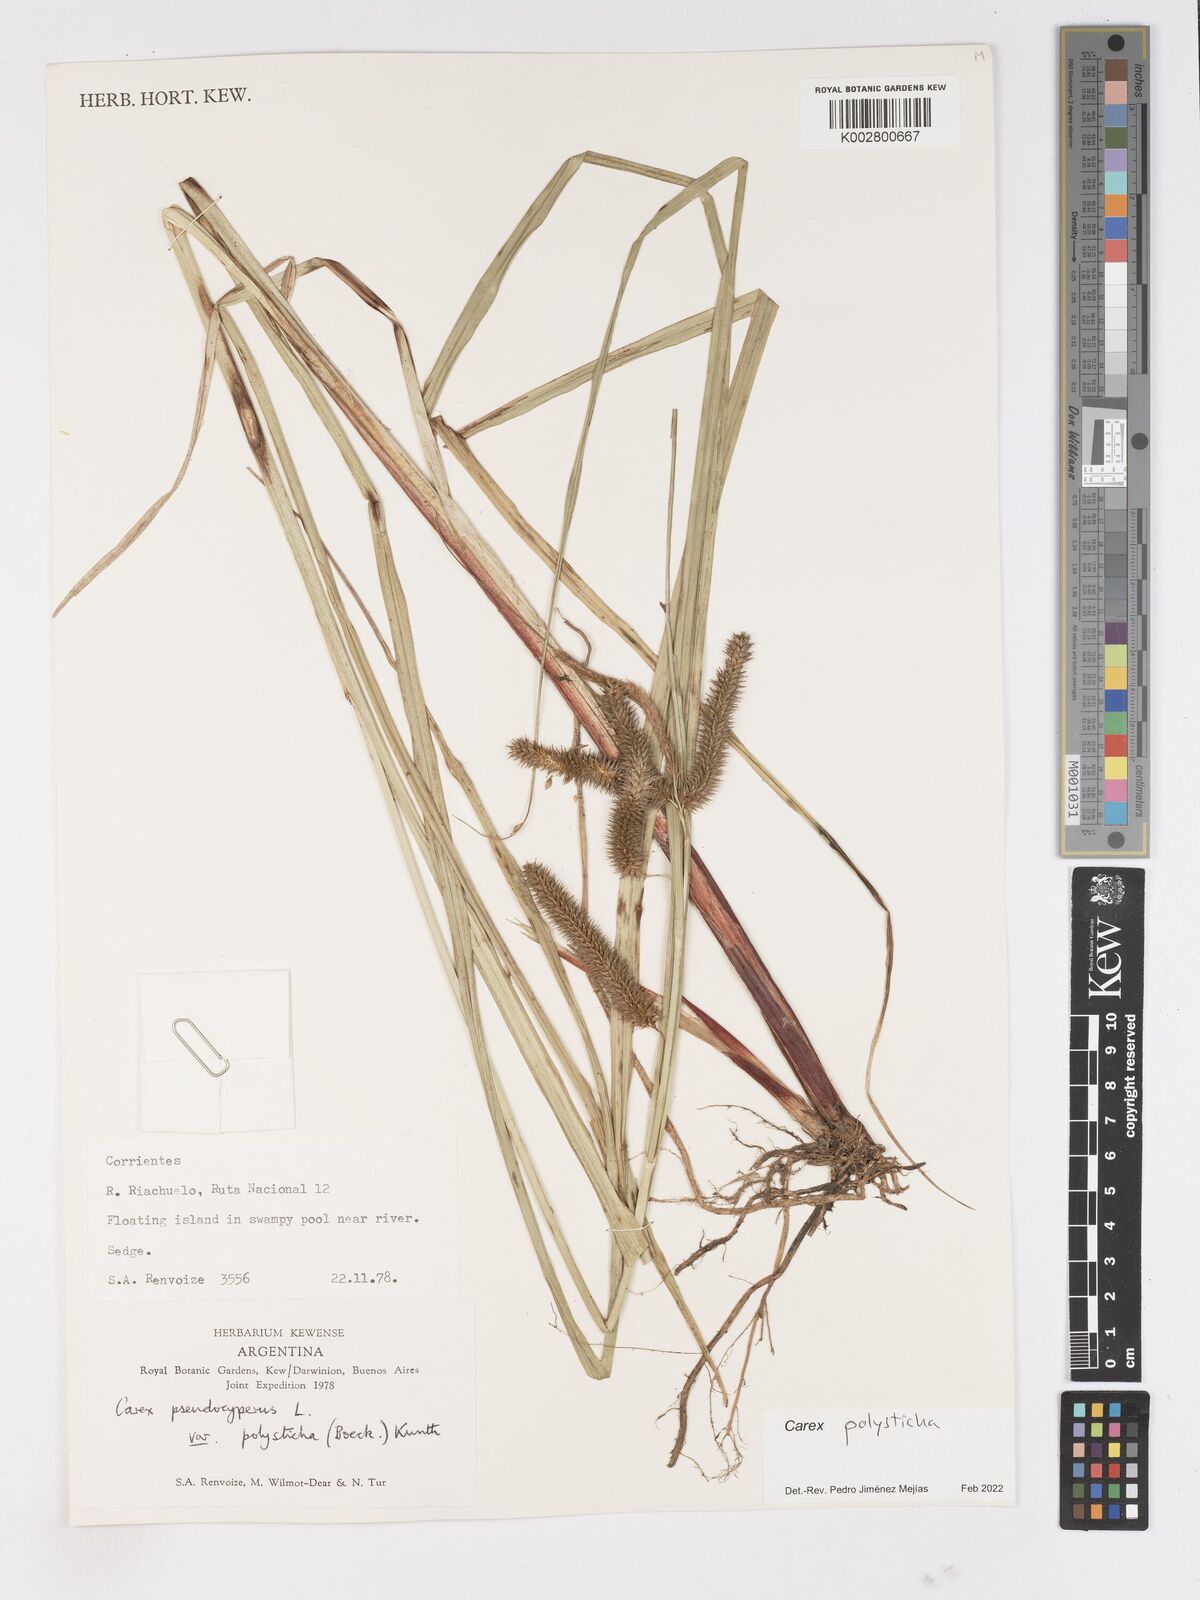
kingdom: Plantae
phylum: Tracheophyta
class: Liliopsida
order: Poales
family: Cyperaceae
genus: Carex
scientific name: Carex polysticha
